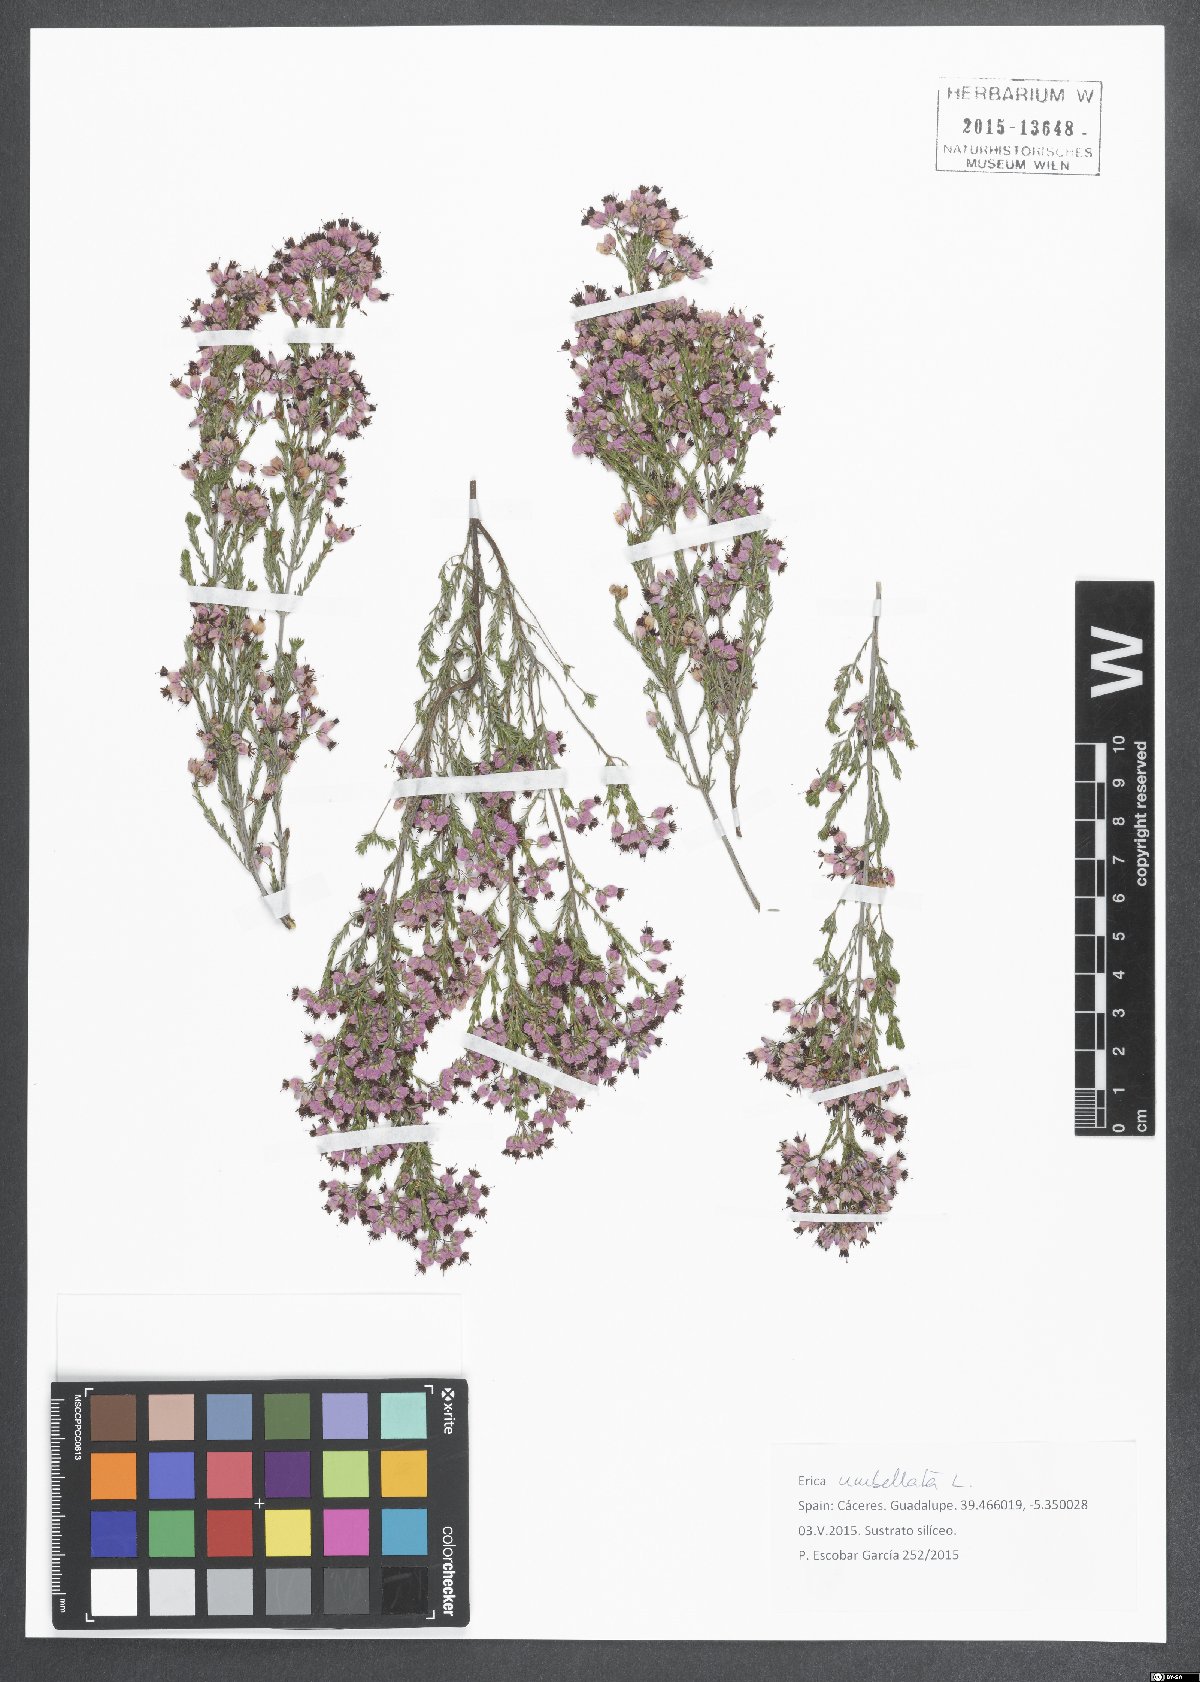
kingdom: Plantae
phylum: Tracheophyta
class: Magnoliopsida
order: Ericales
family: Ericaceae
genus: Erica
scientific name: Erica umbellata
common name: Dwarf spanish heath
